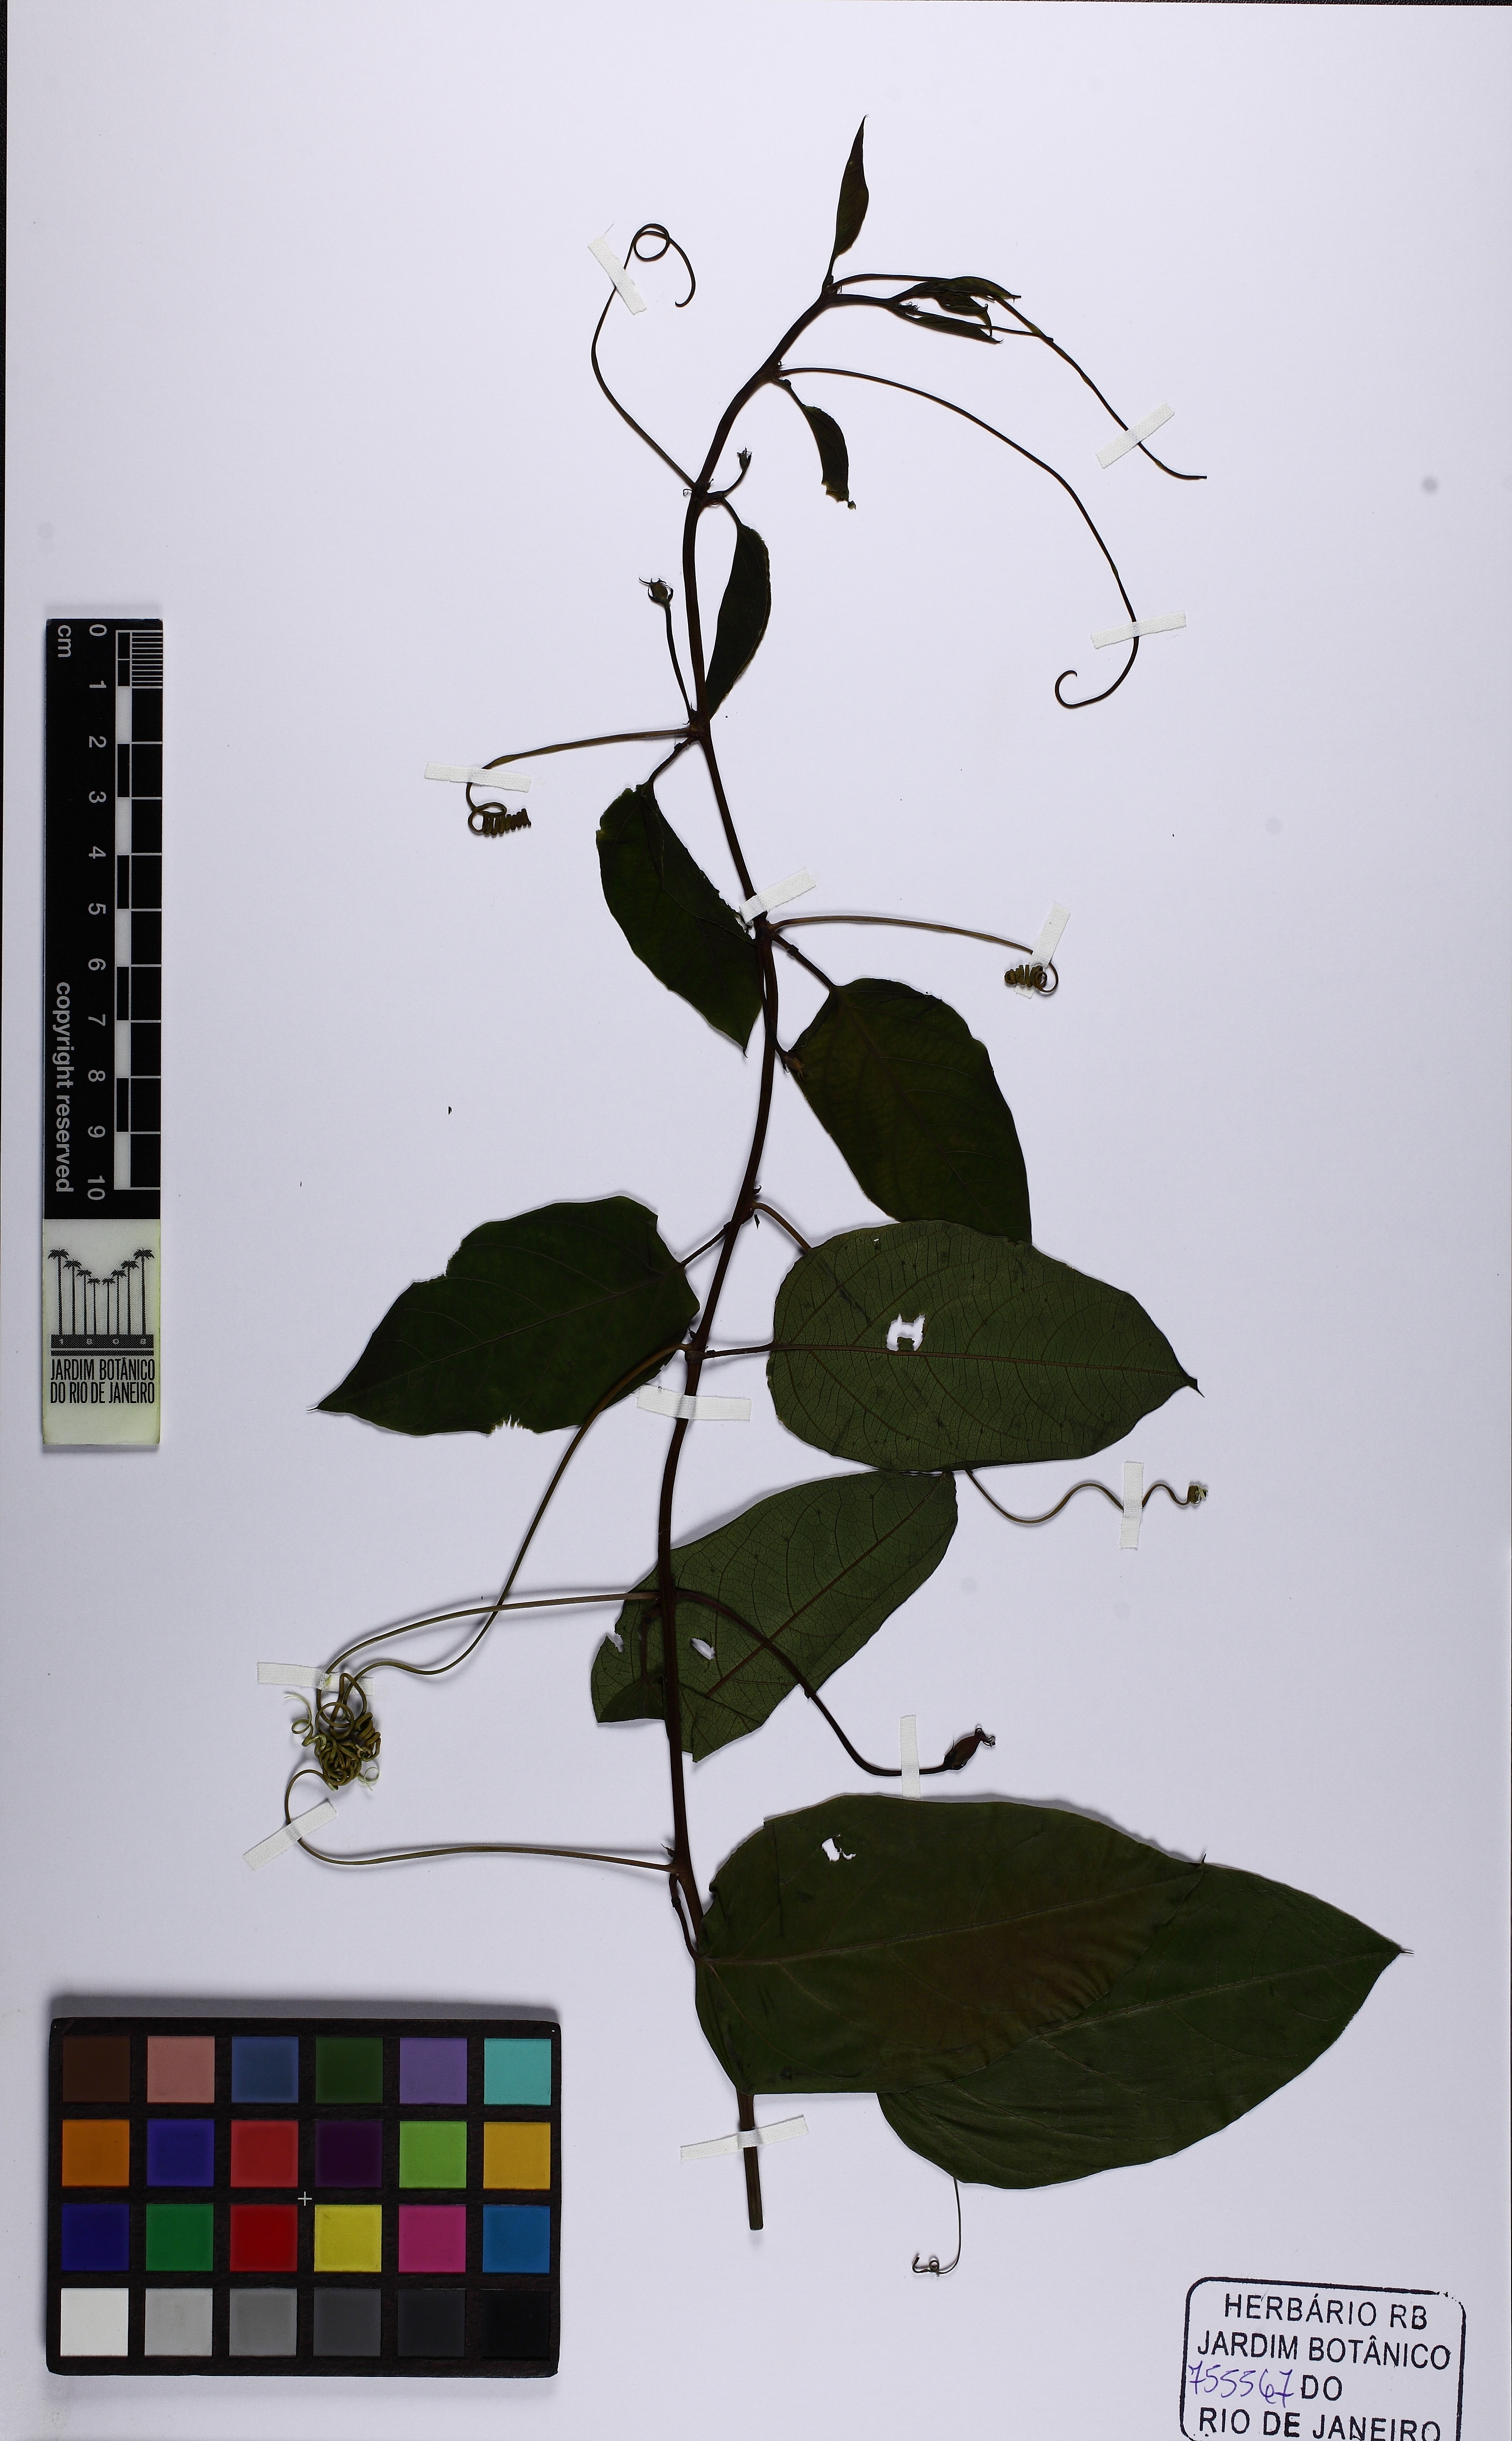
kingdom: Plantae
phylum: Tracheophyta
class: Magnoliopsida
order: Malpighiales
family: Passifloraceae
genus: Passiflora
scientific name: Passiflora cristalina
